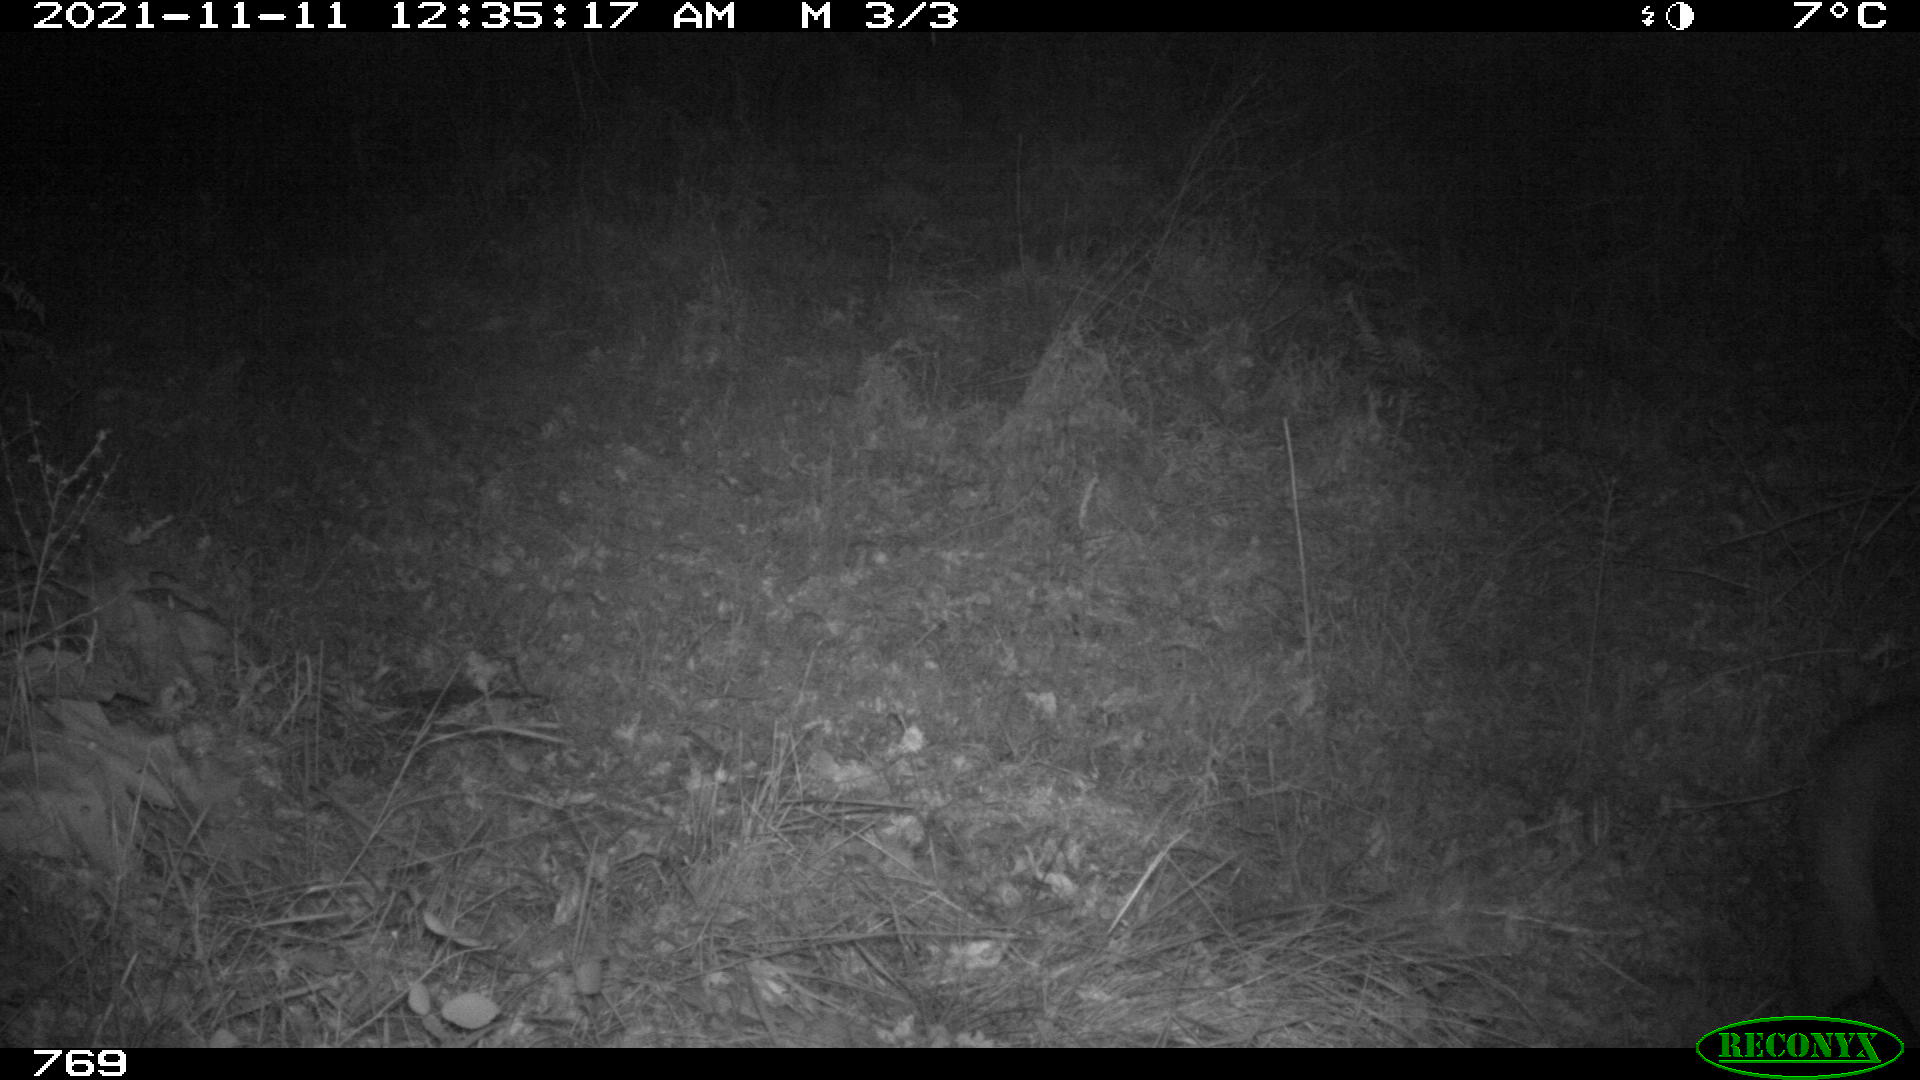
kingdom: Animalia
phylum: Chordata
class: Mammalia
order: Artiodactyla
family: Cervidae
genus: Capreolus
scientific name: Capreolus capreolus
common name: Western roe deer
